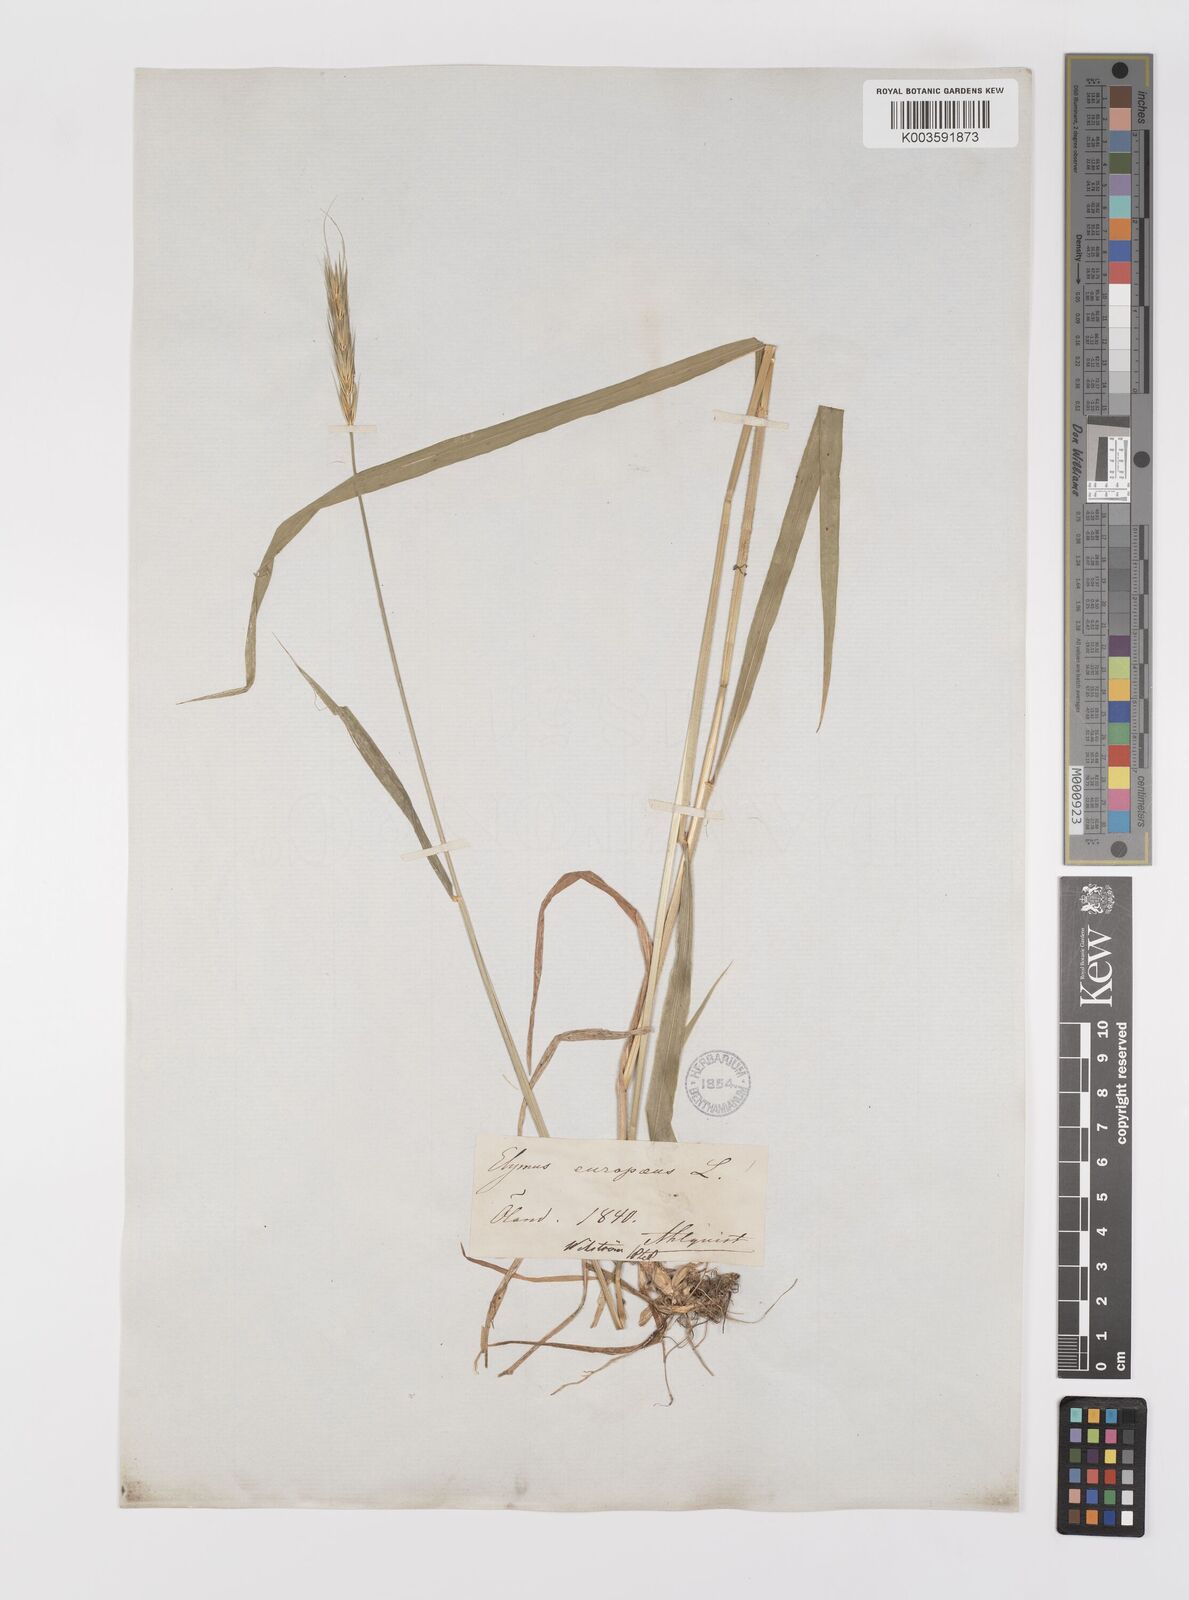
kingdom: Plantae
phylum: Tracheophyta
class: Liliopsida
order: Poales
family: Poaceae
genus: Hordelymus
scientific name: Hordelymus europaeus
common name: Wood-barley
